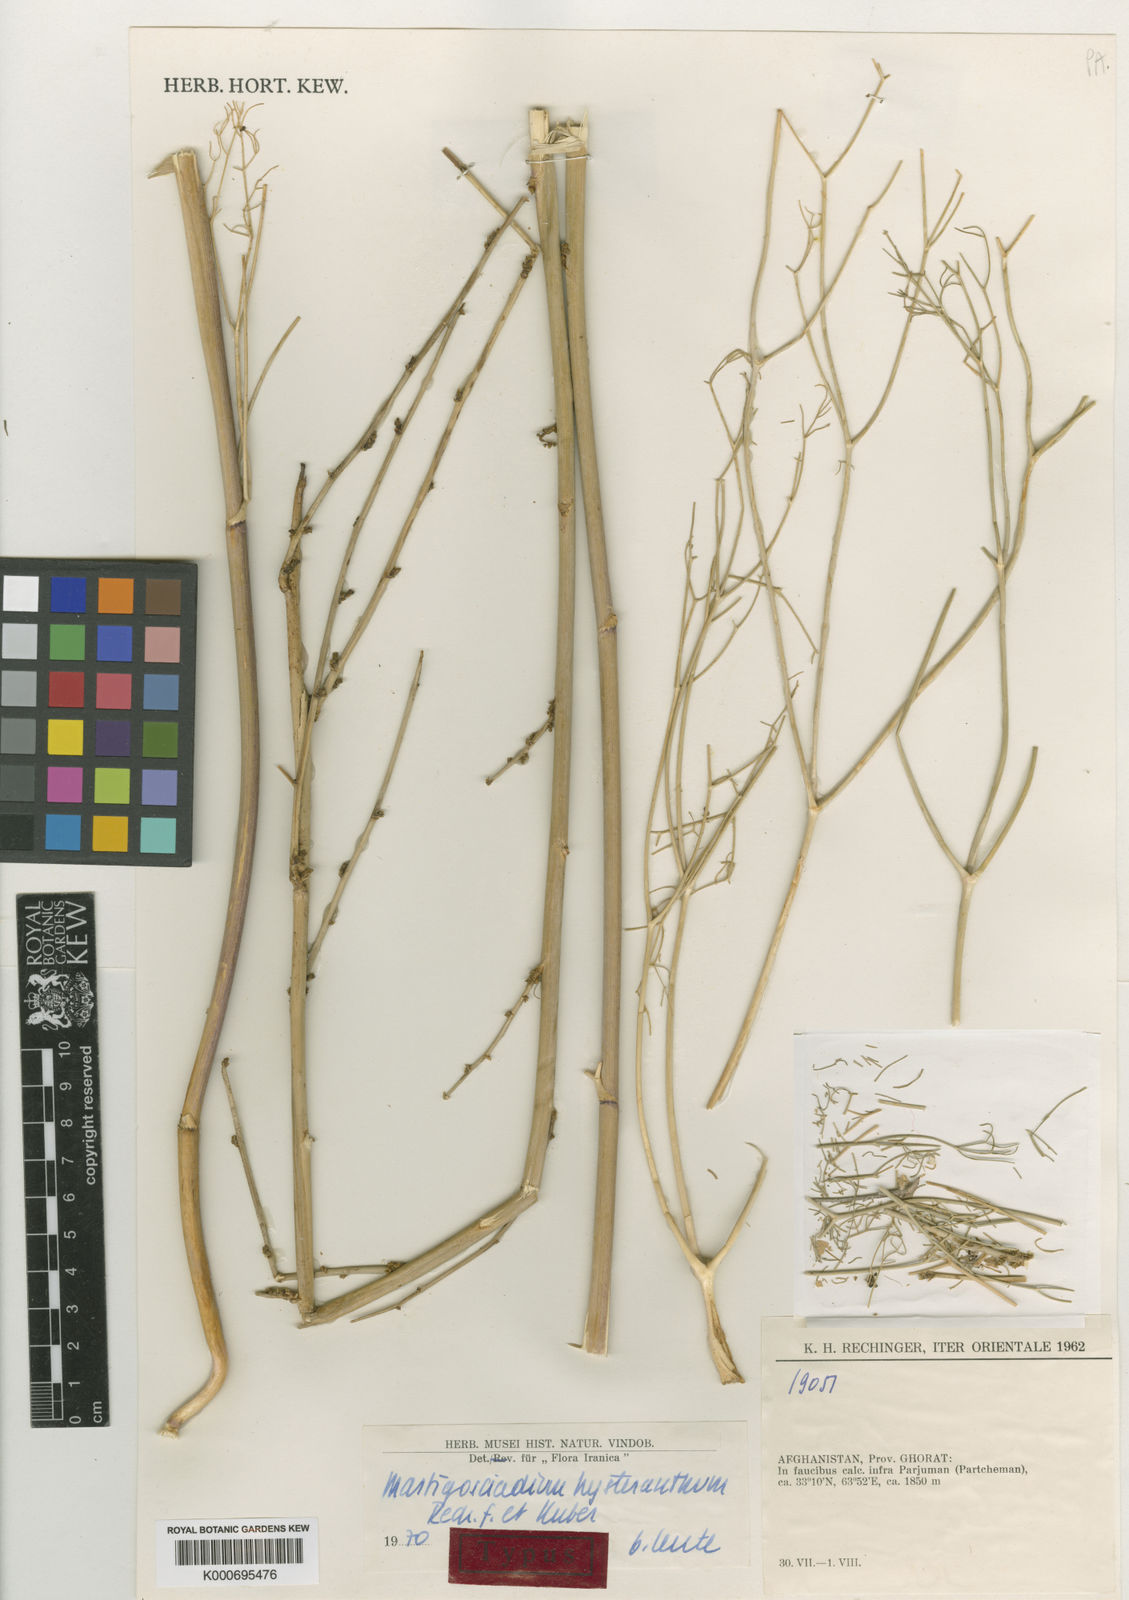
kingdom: Plantae
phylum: Tracheophyta
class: Magnoliopsida
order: Apiales
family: Apiaceae
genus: Mastigosciadium
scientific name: Mastigosciadium
